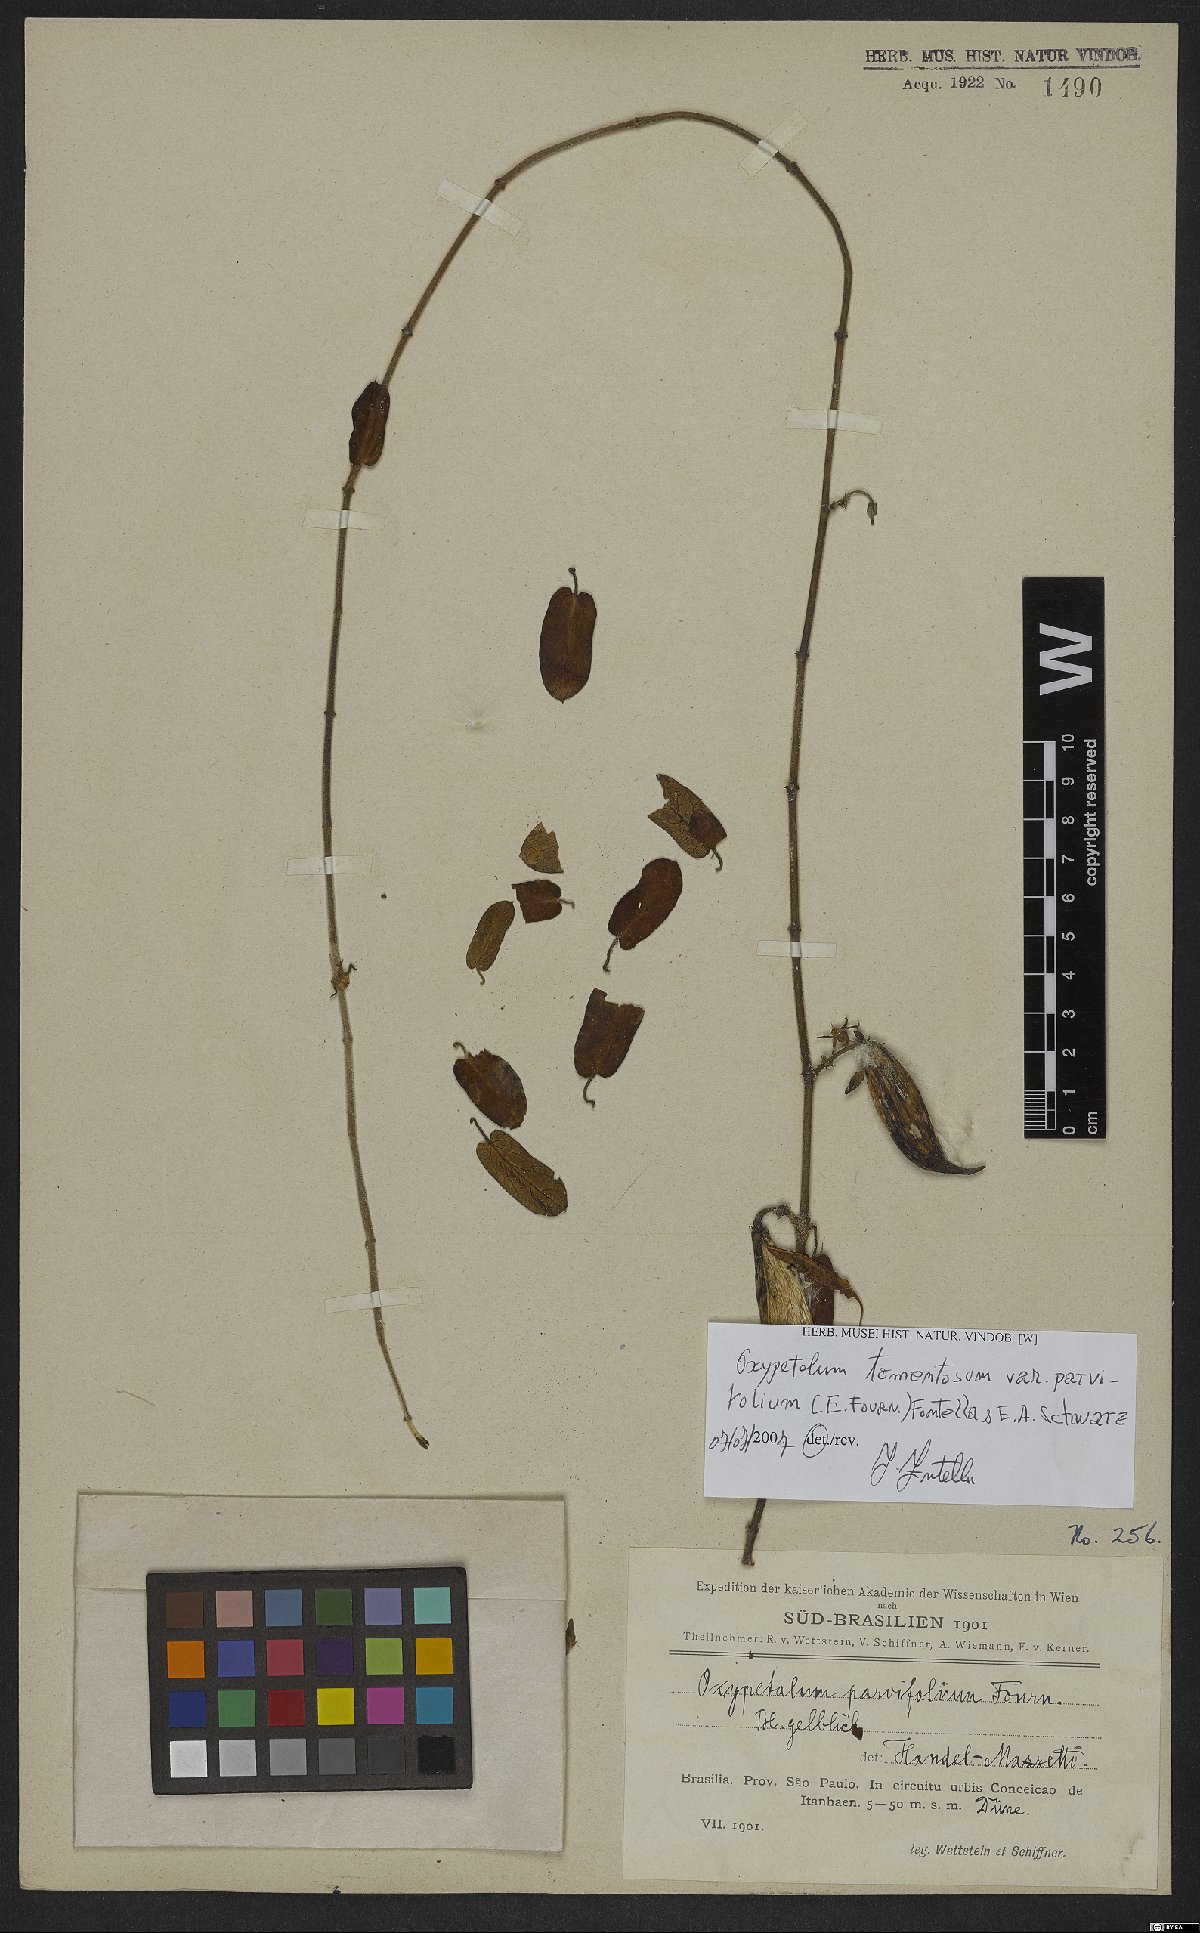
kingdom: Plantae
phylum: Tracheophyta
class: Magnoliopsida
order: Gentianales
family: Apocynaceae
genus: Oxypetalum
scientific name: Oxypetalum tomentosum
